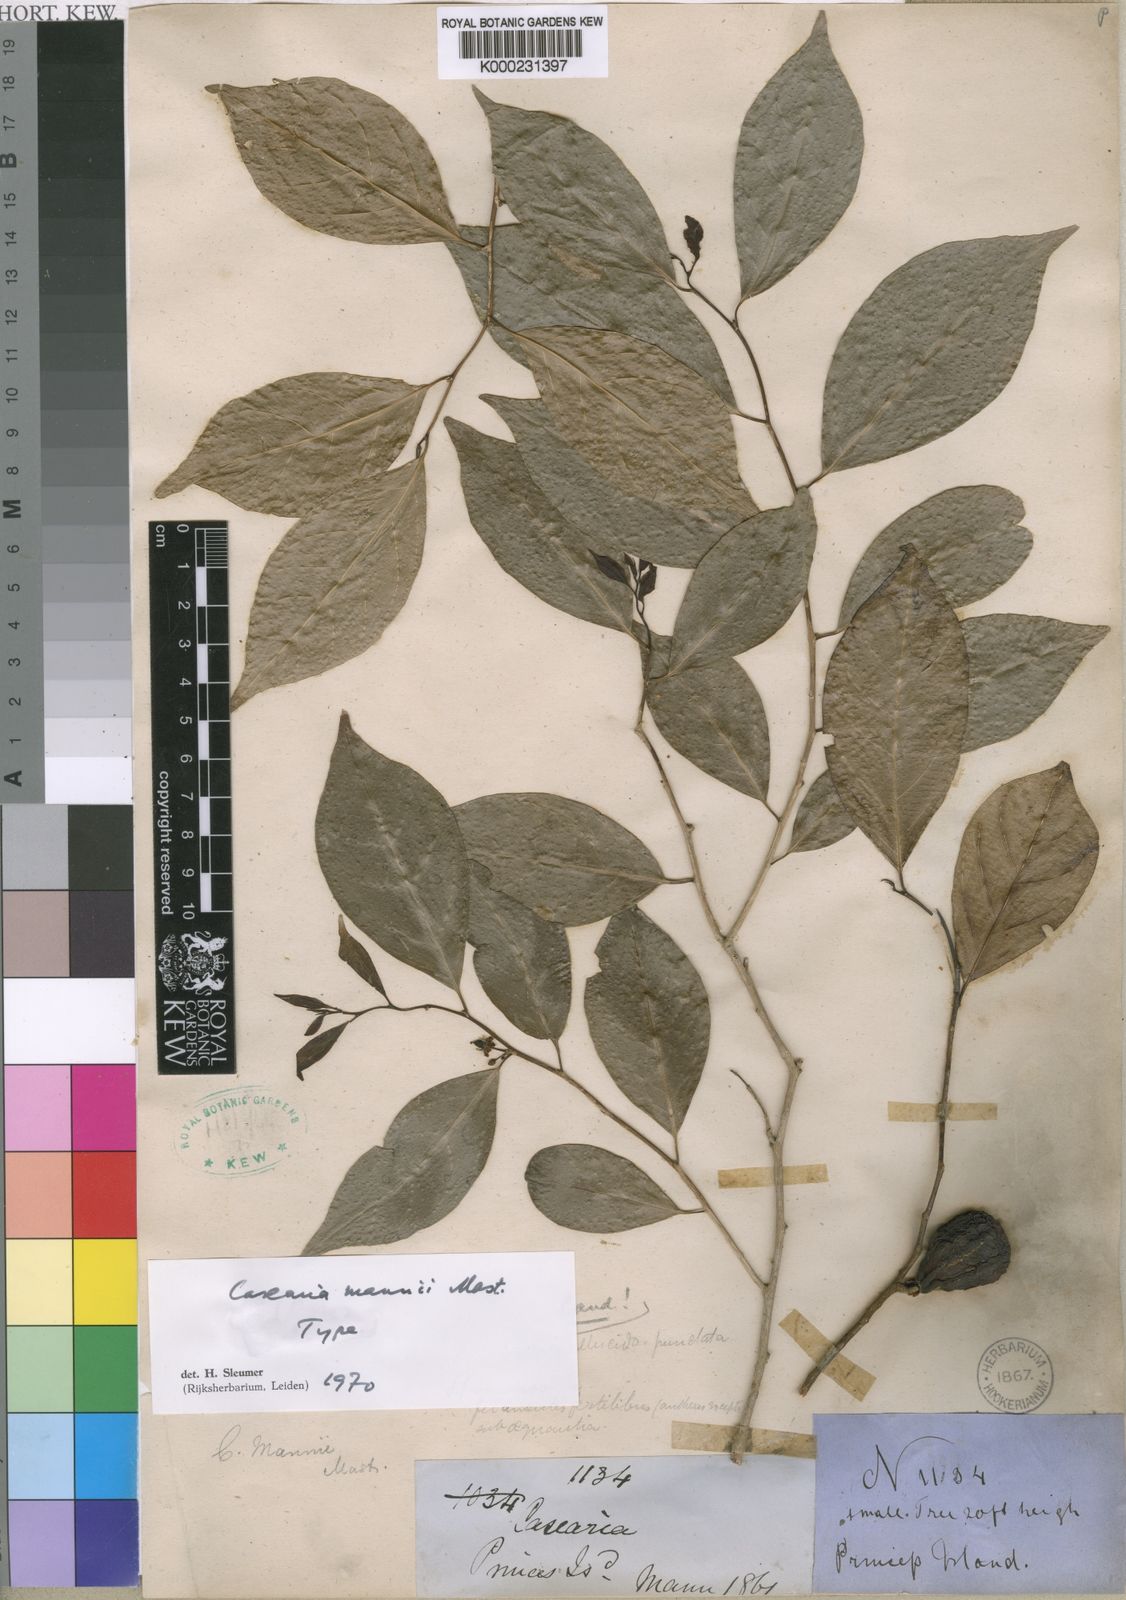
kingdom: Plantae
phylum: Tracheophyta
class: Magnoliopsida
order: Malpighiales
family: Salicaceae
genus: Casearia
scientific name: Casearia mannii
